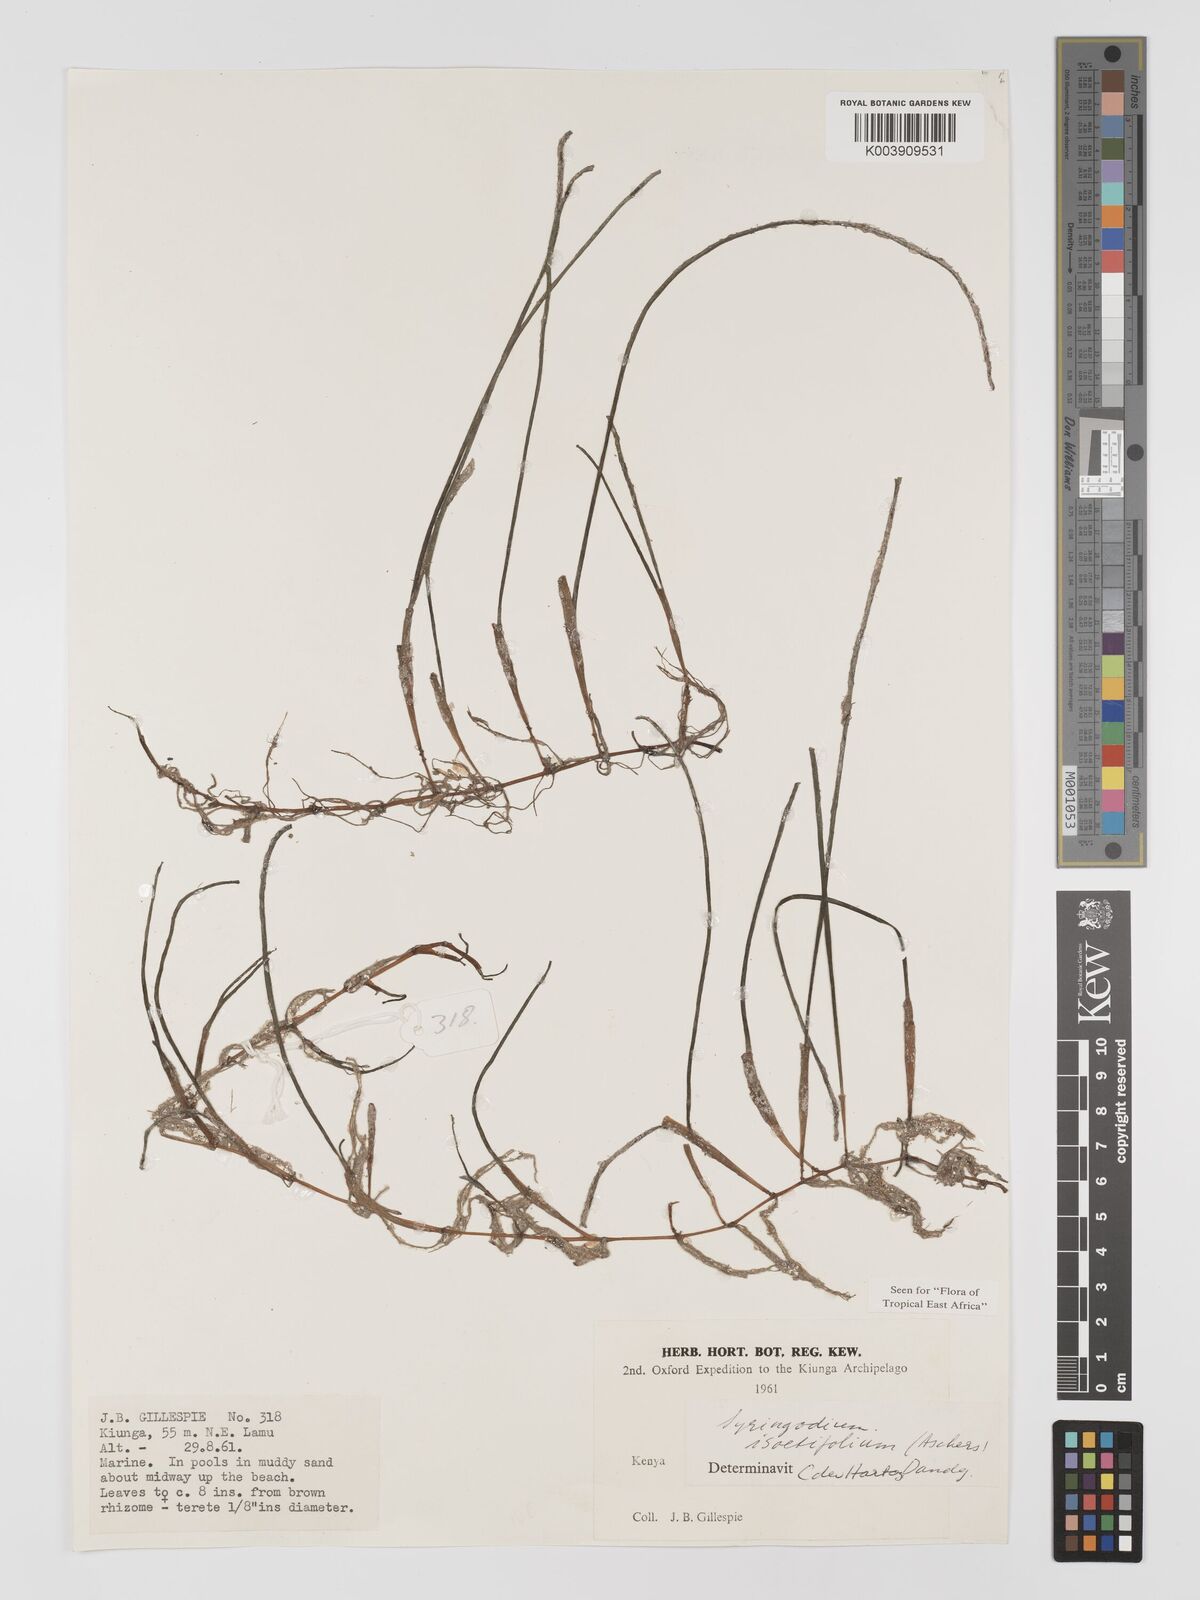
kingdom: Plantae
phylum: Tracheophyta
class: Liliopsida
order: Alismatales
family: Cymodoceaceae
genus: Syringodium
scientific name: Syringodium isoetifolium
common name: Species code: si
